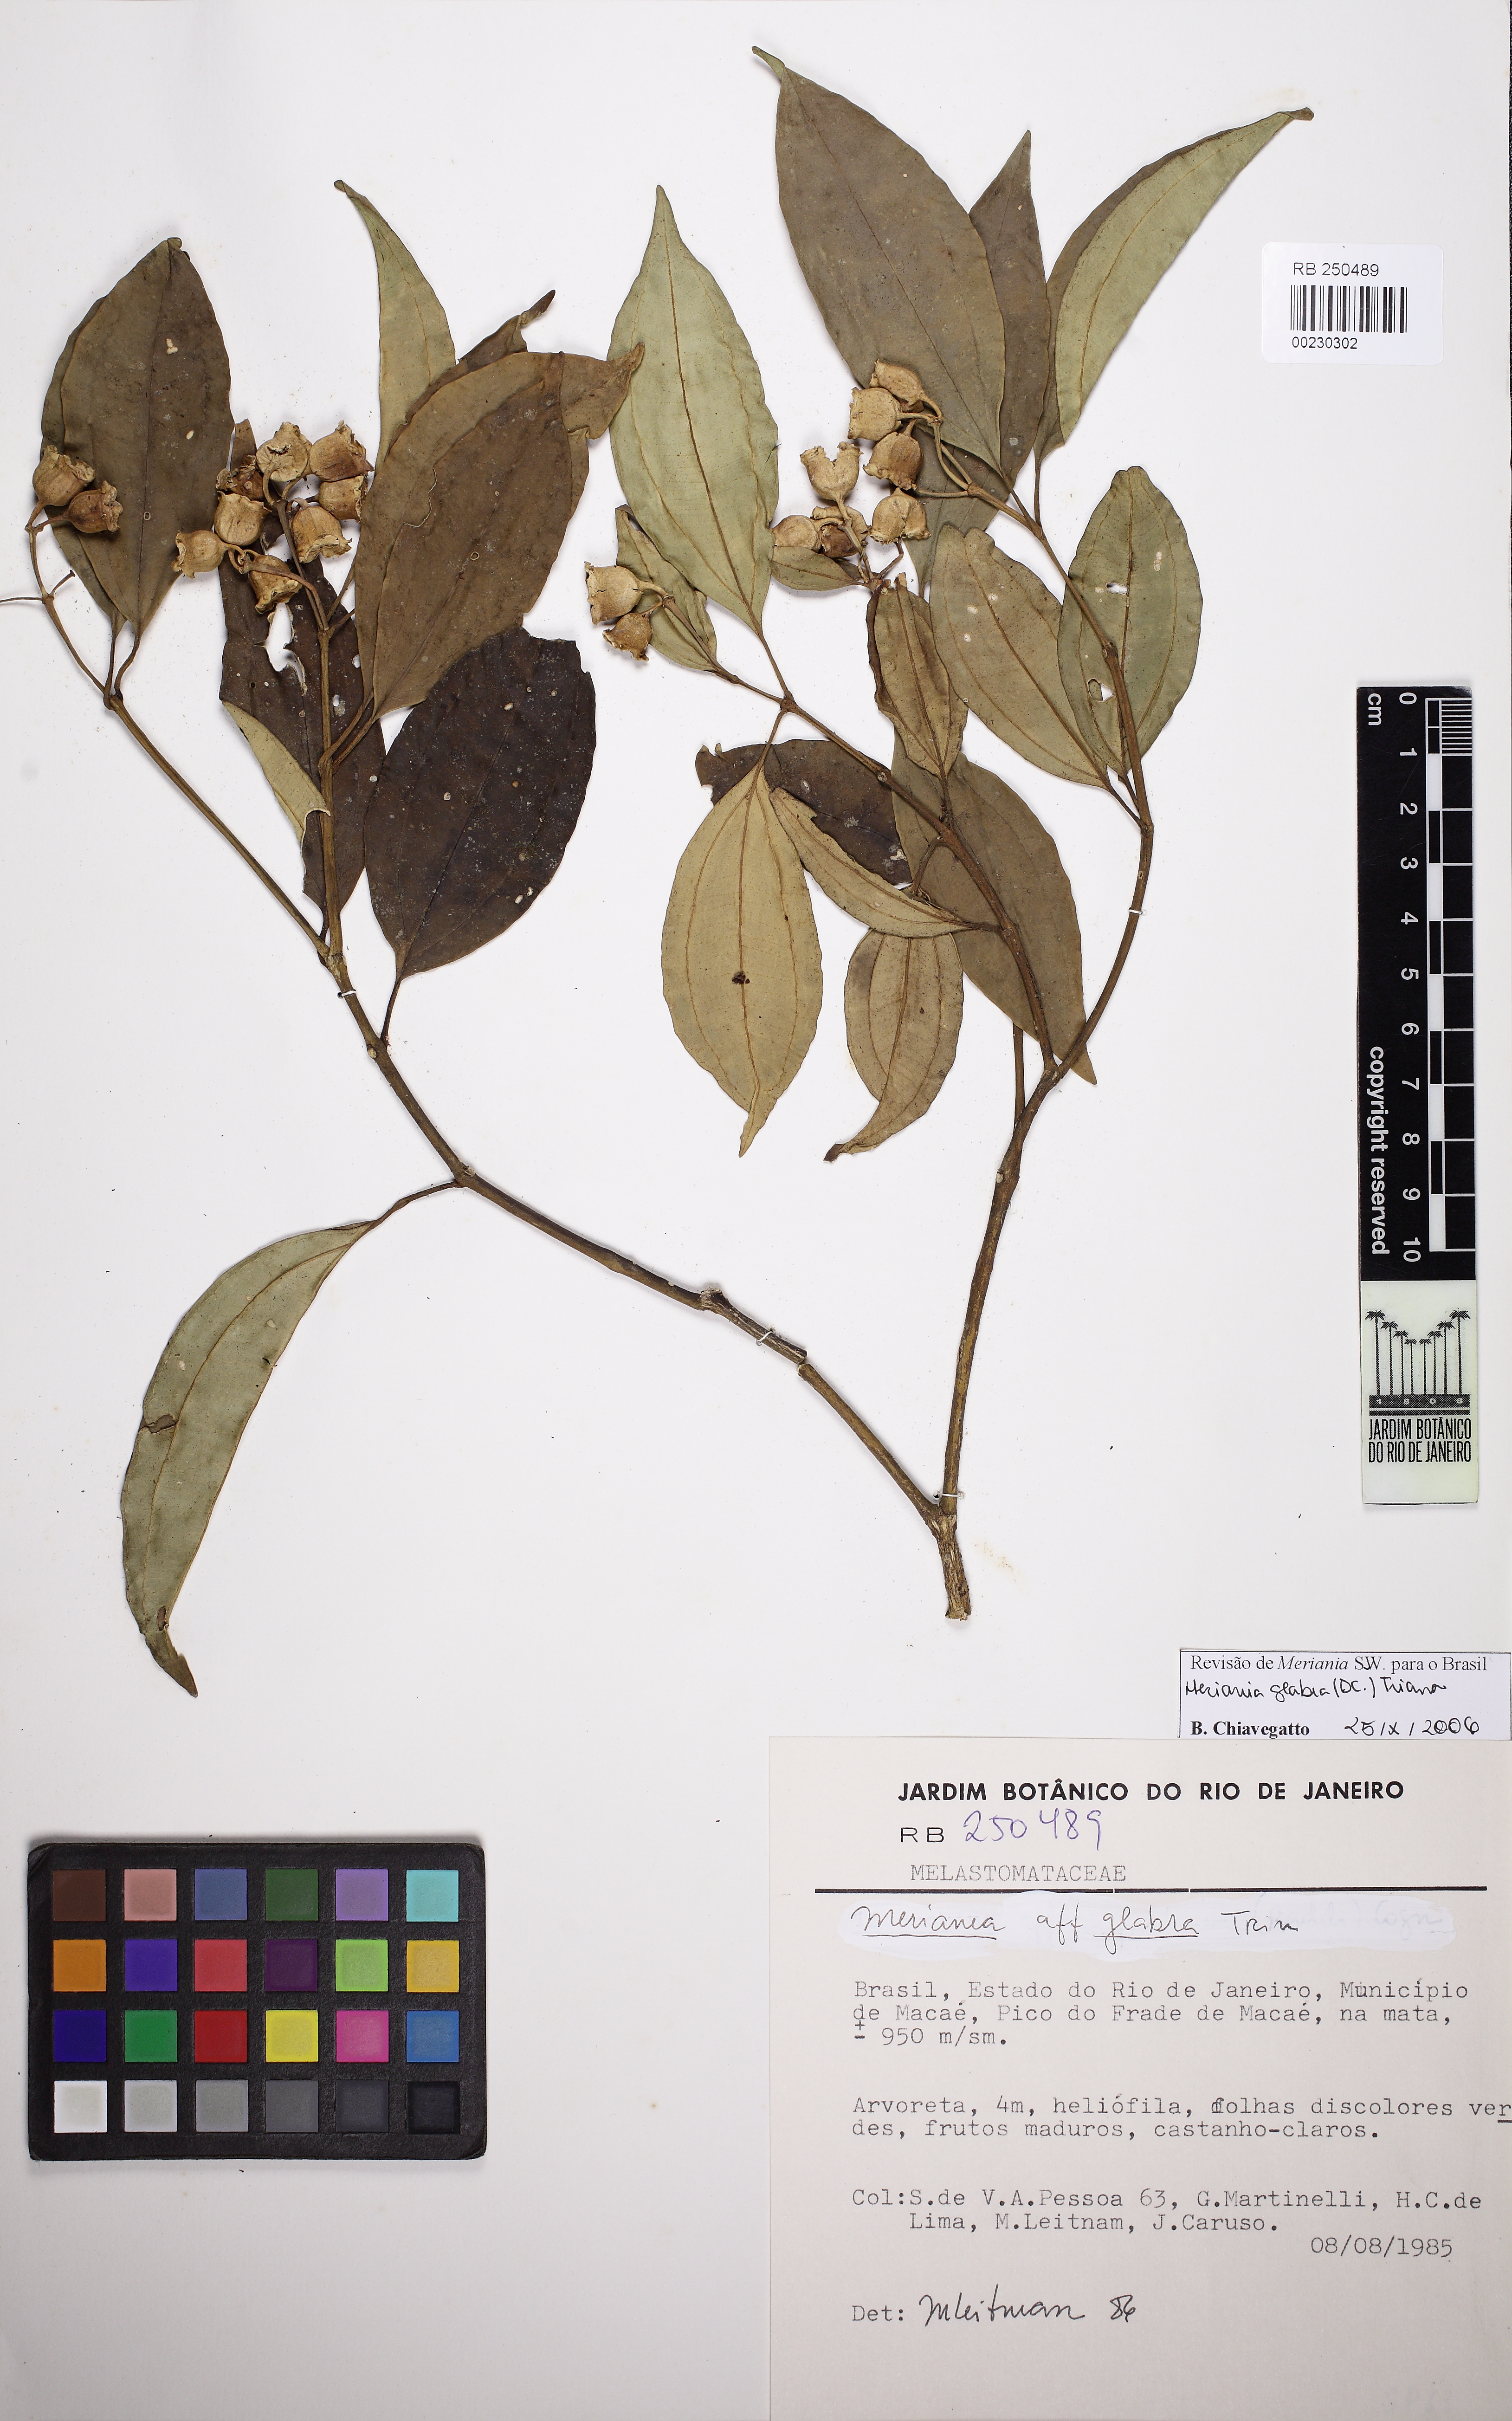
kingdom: Plantae
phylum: Tracheophyta
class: Magnoliopsida
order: Myrtales
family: Melastomataceae
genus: Meriania
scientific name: Meriania glabra
